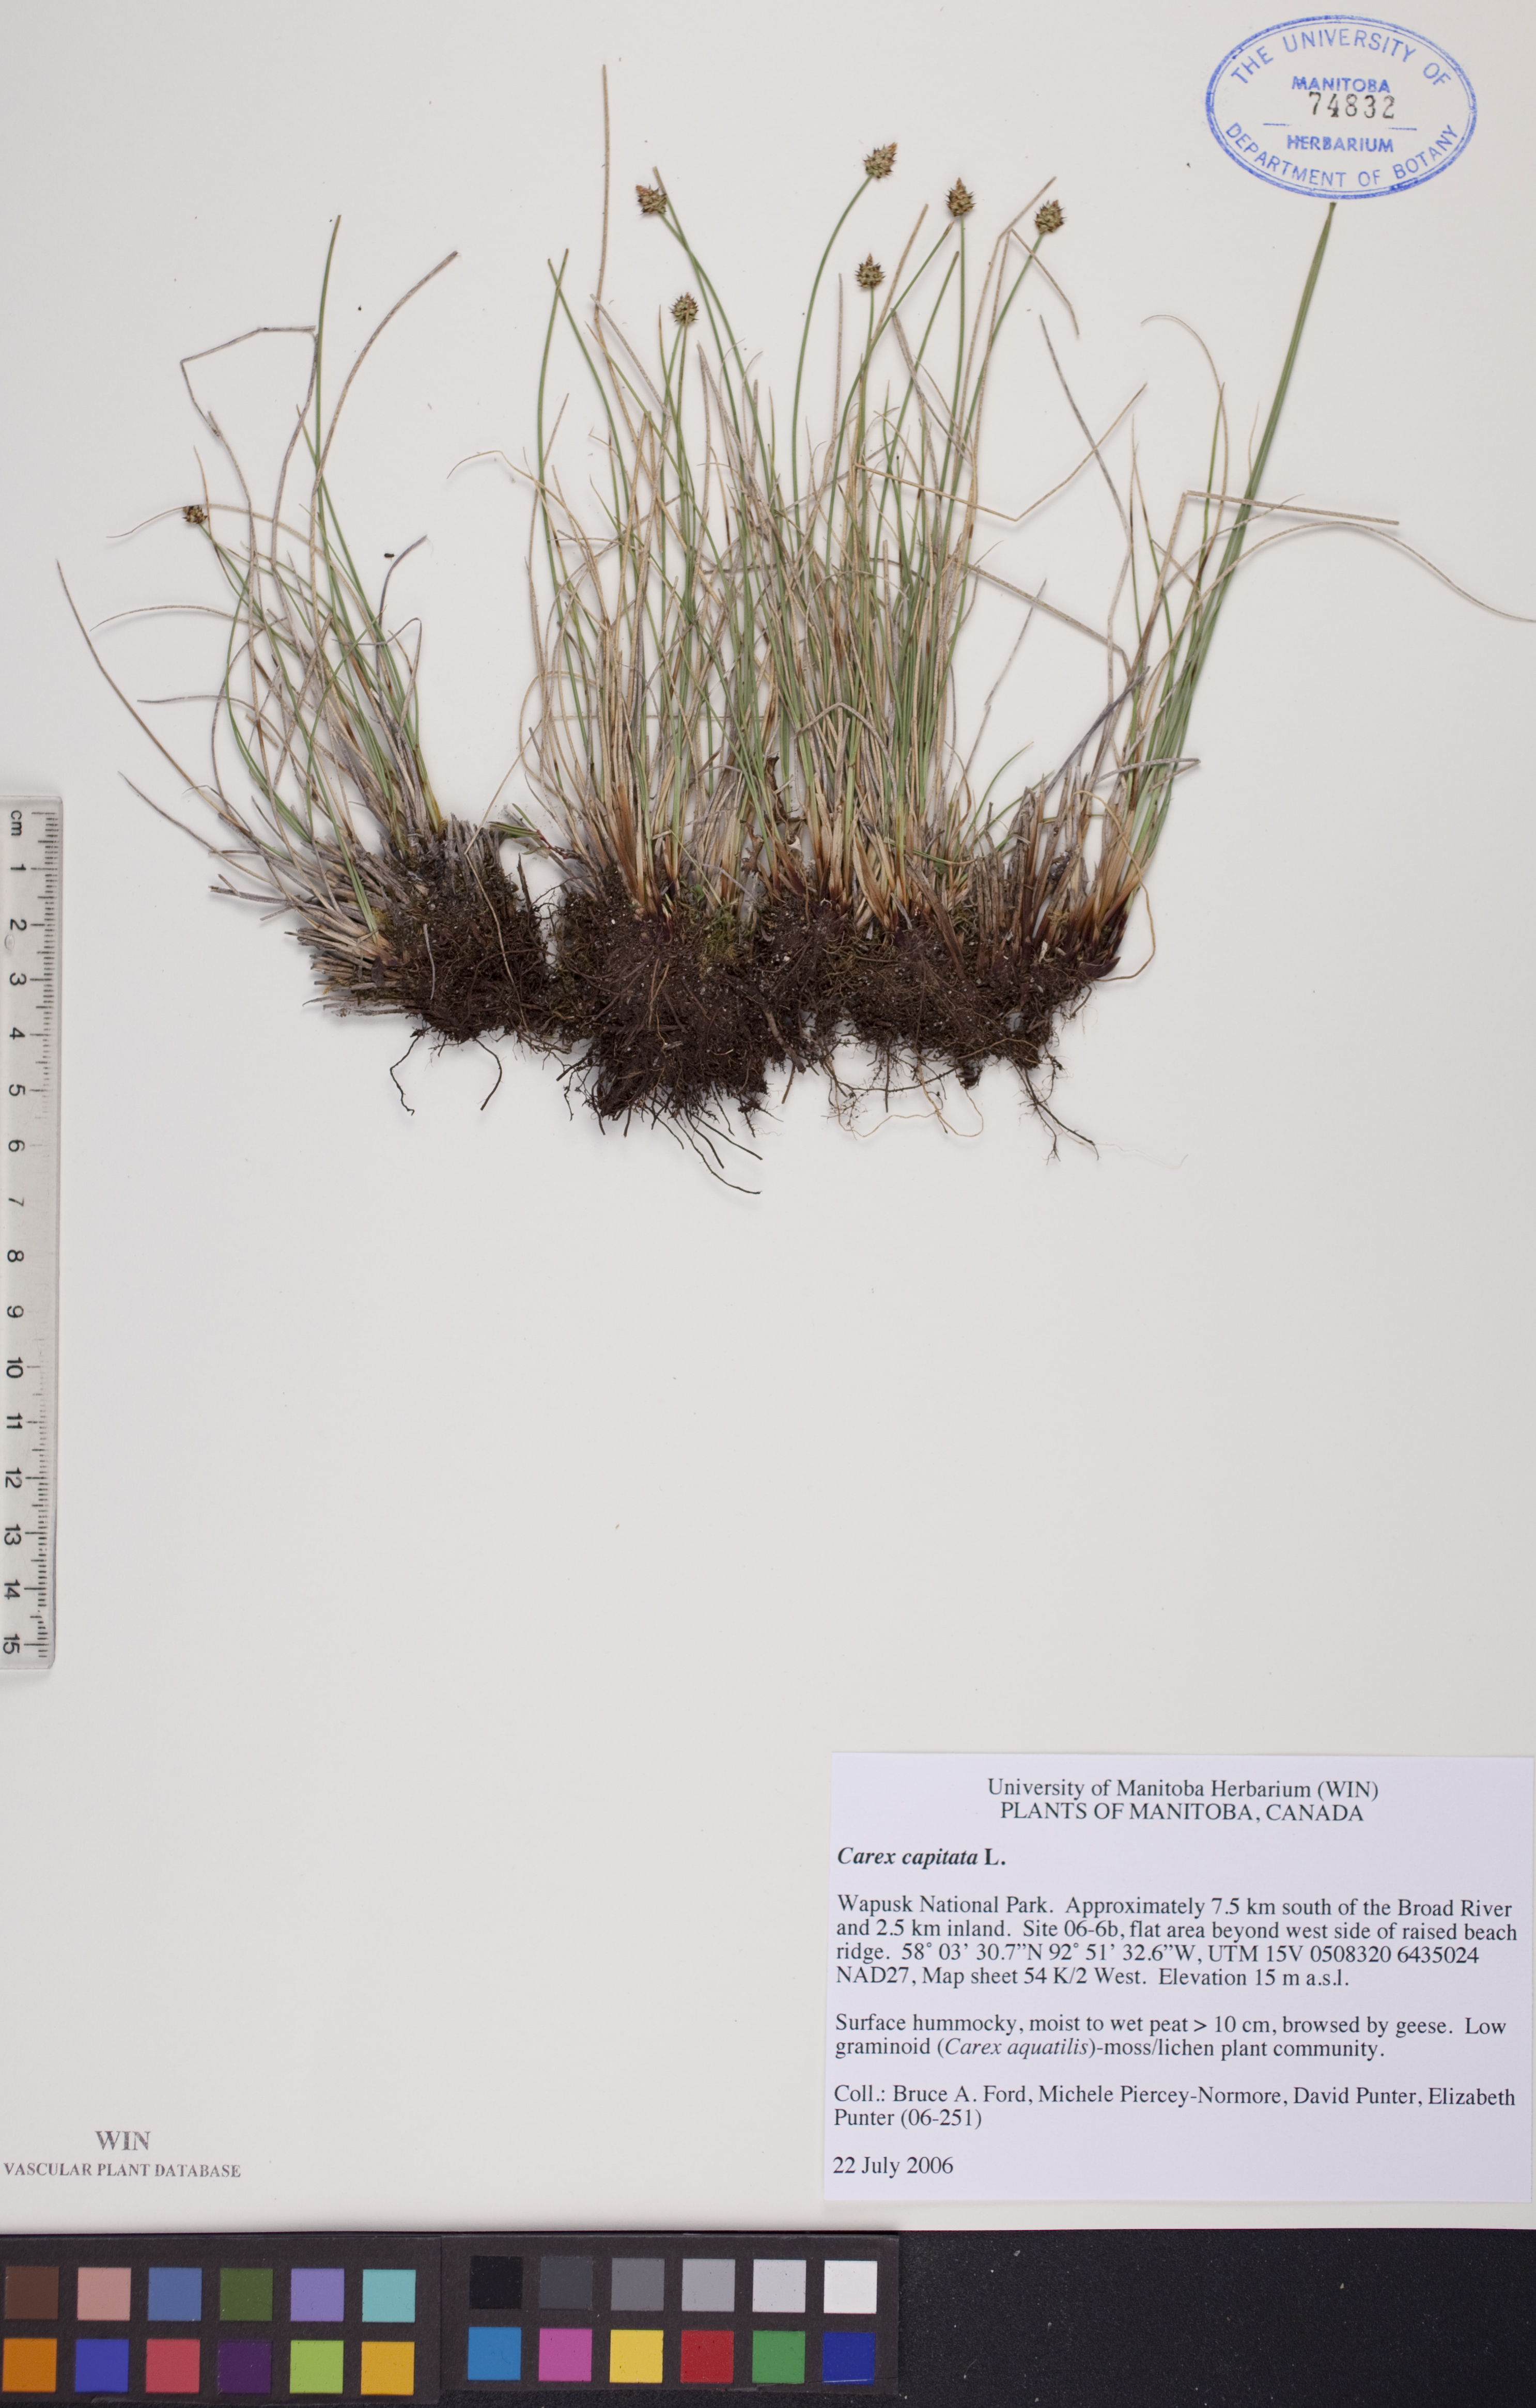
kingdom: Plantae
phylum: Tracheophyta
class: Liliopsida
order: Poales
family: Cyperaceae
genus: Carex
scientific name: Carex capitata
